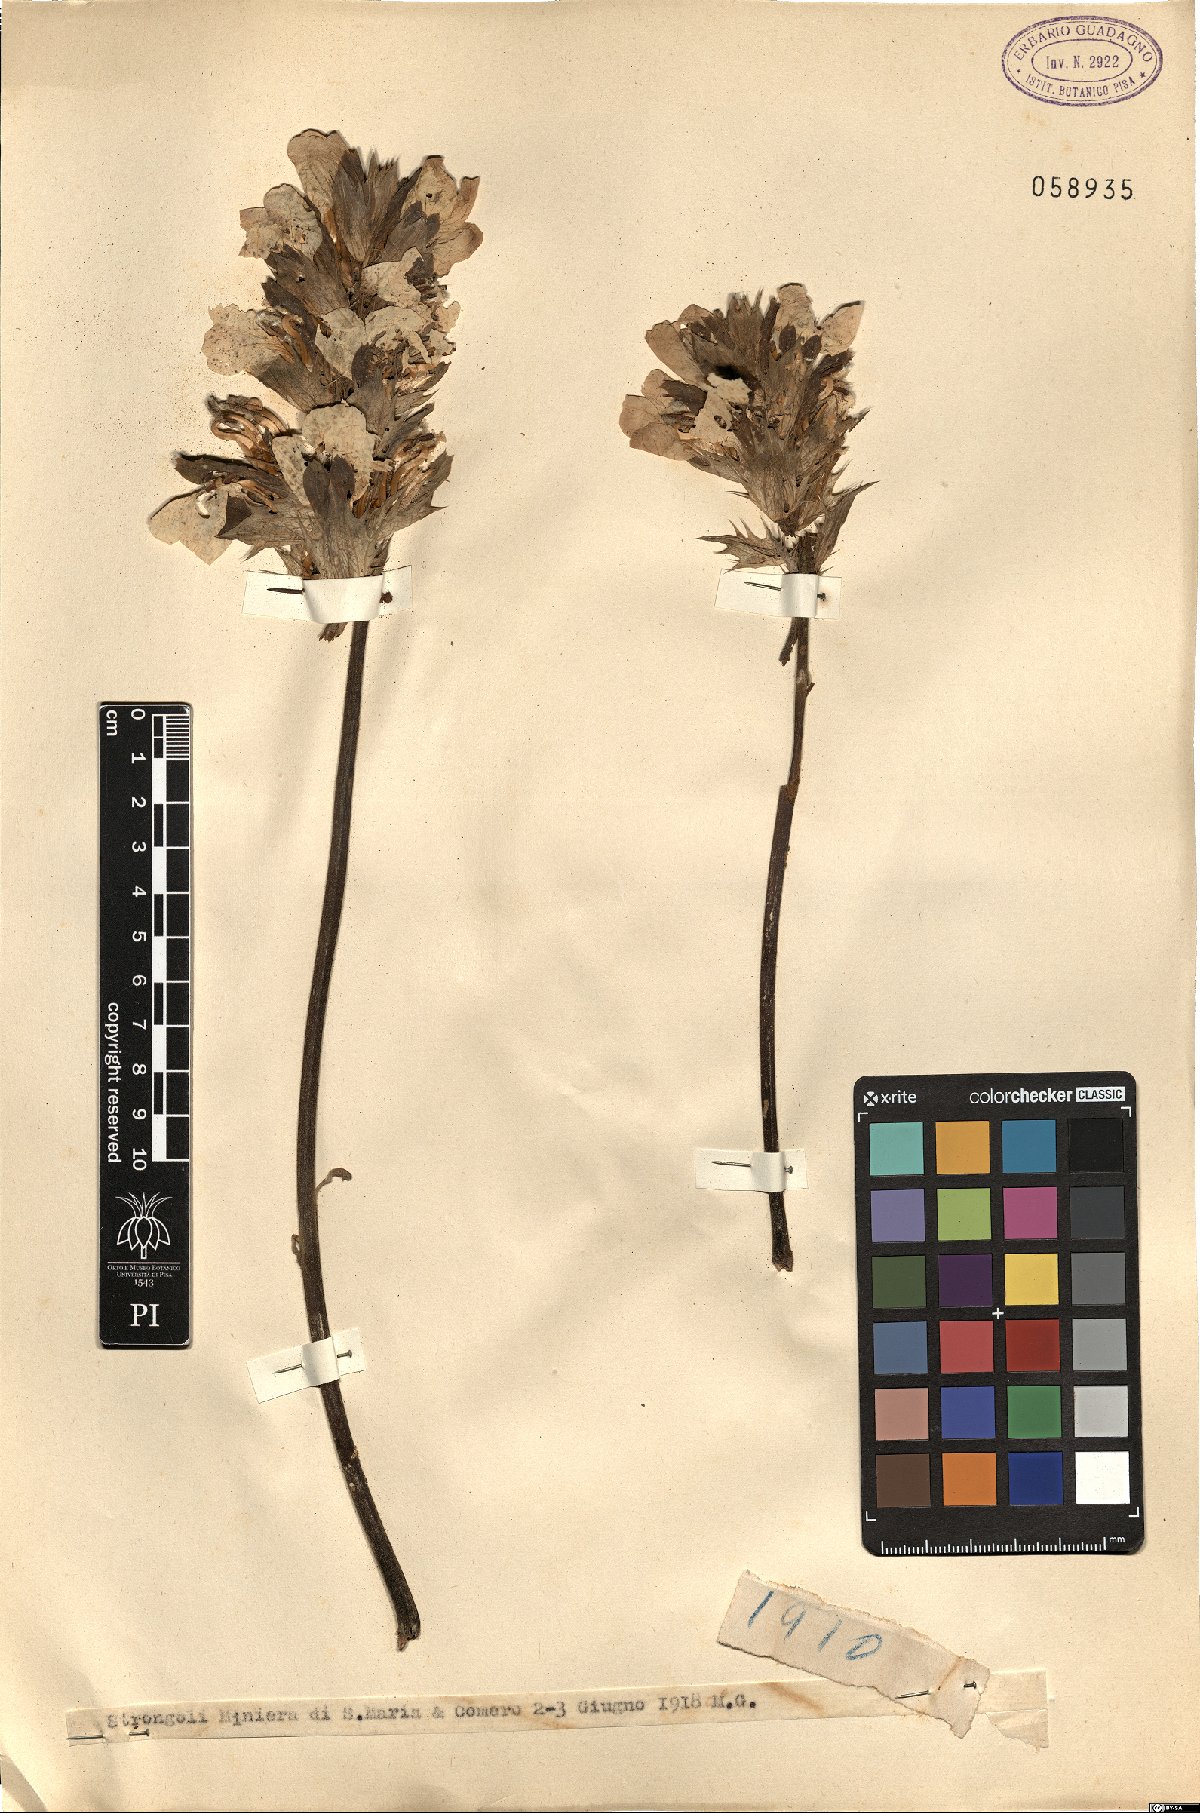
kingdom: Plantae
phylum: Tracheophyta
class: Magnoliopsida
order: Lamiales
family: Acanthaceae
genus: Acanthus
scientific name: Acanthus
